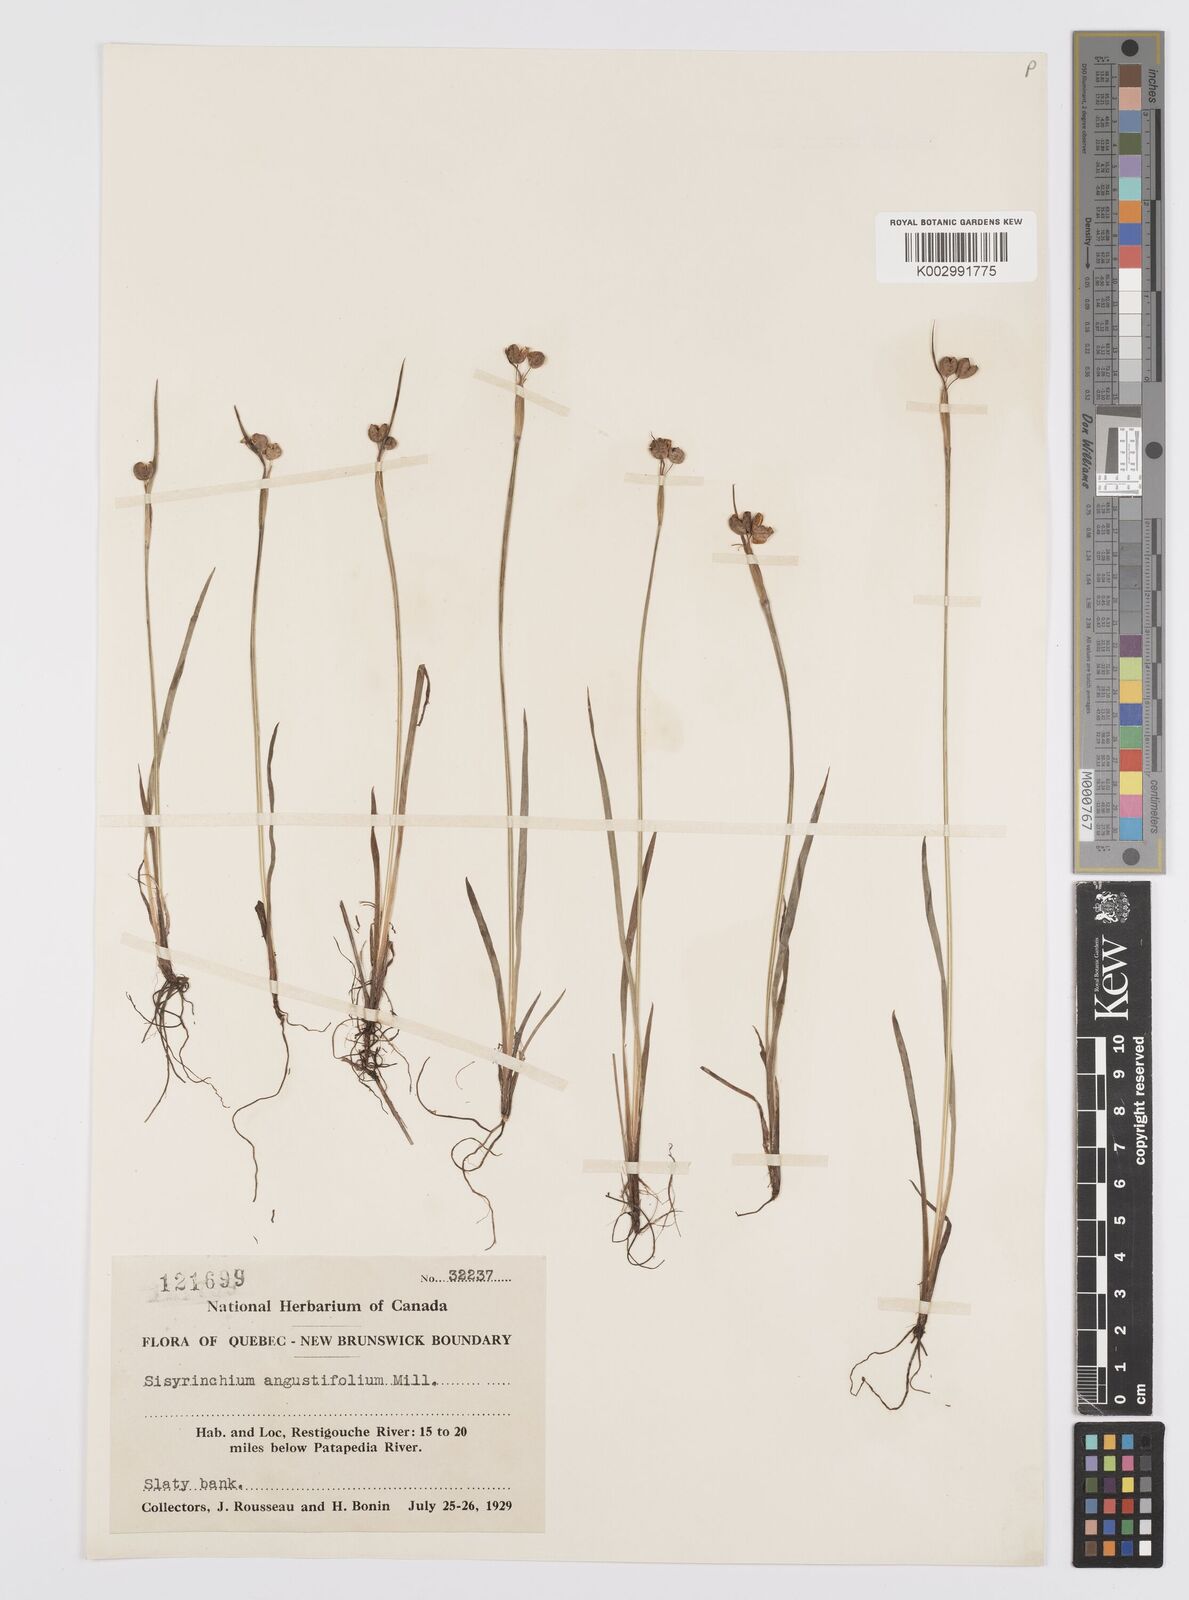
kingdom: Plantae
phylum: Tracheophyta
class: Liliopsida
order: Asparagales
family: Iridaceae
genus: Sisyrinchium
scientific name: Sisyrinchium bermudiana
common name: Blue-eyed-grass
